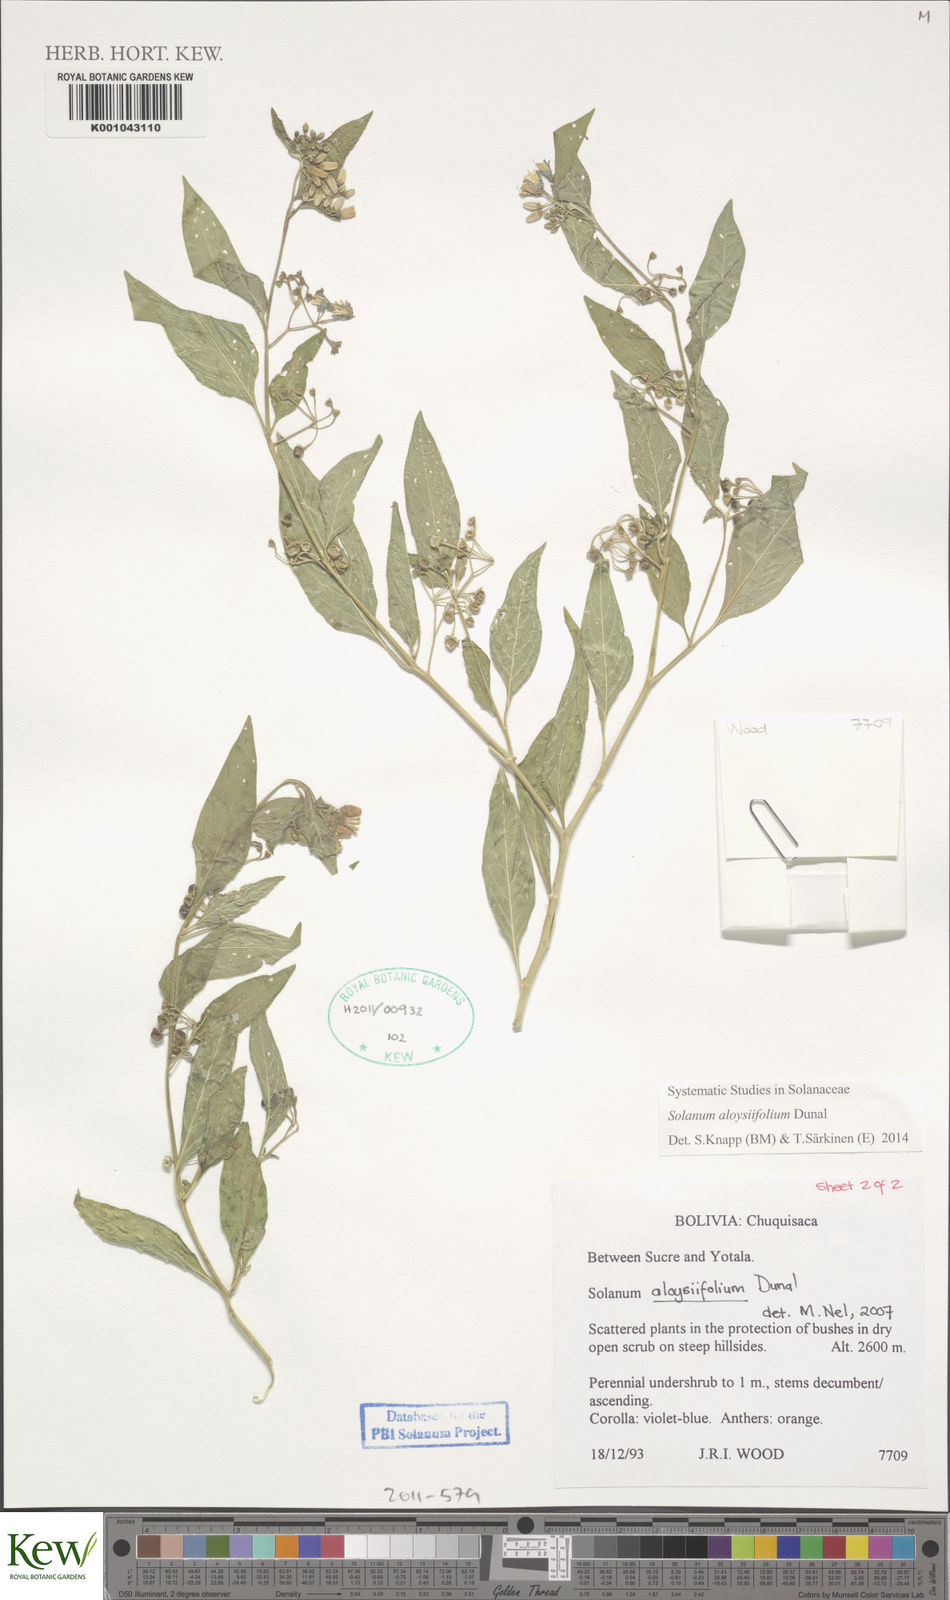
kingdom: Plantae
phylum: Tracheophyta
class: Magnoliopsida
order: Solanales
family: Solanaceae
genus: Solanum
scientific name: Solanum aloysiifolium
